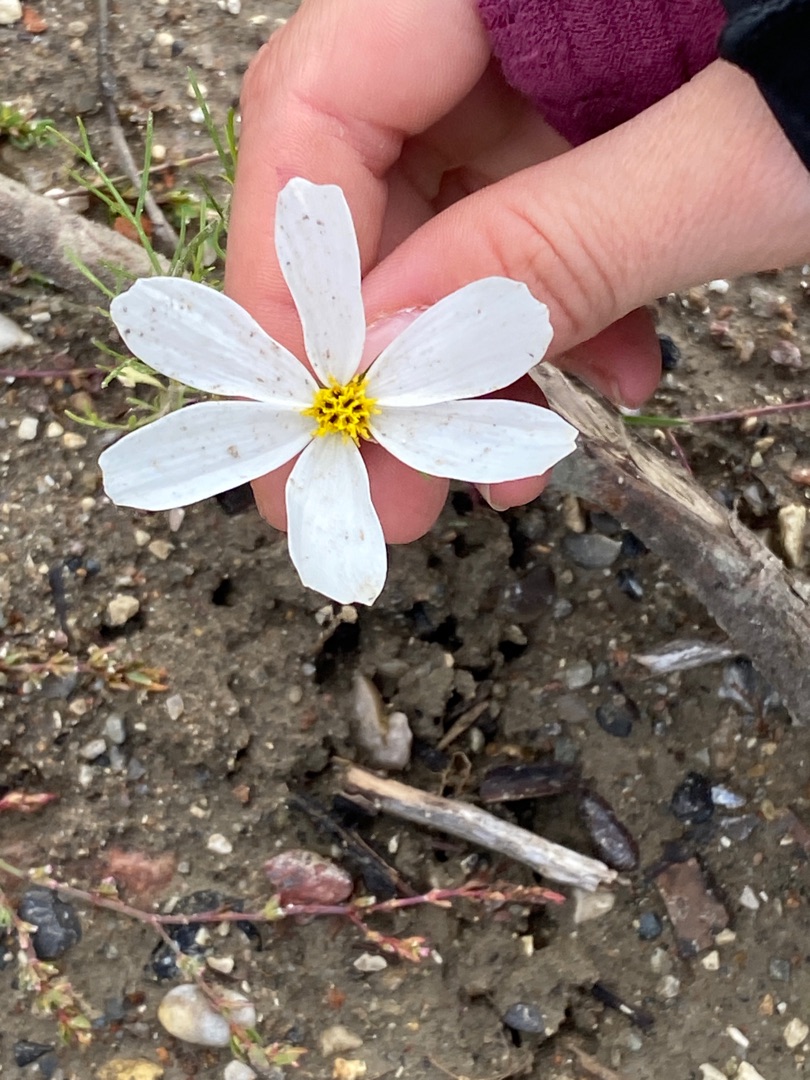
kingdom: Plantae
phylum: Tracheophyta
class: Magnoliopsida
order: Asterales
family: Asteraceae
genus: Cosmos
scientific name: Cosmos bipinnatus
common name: Stolt kavaler
